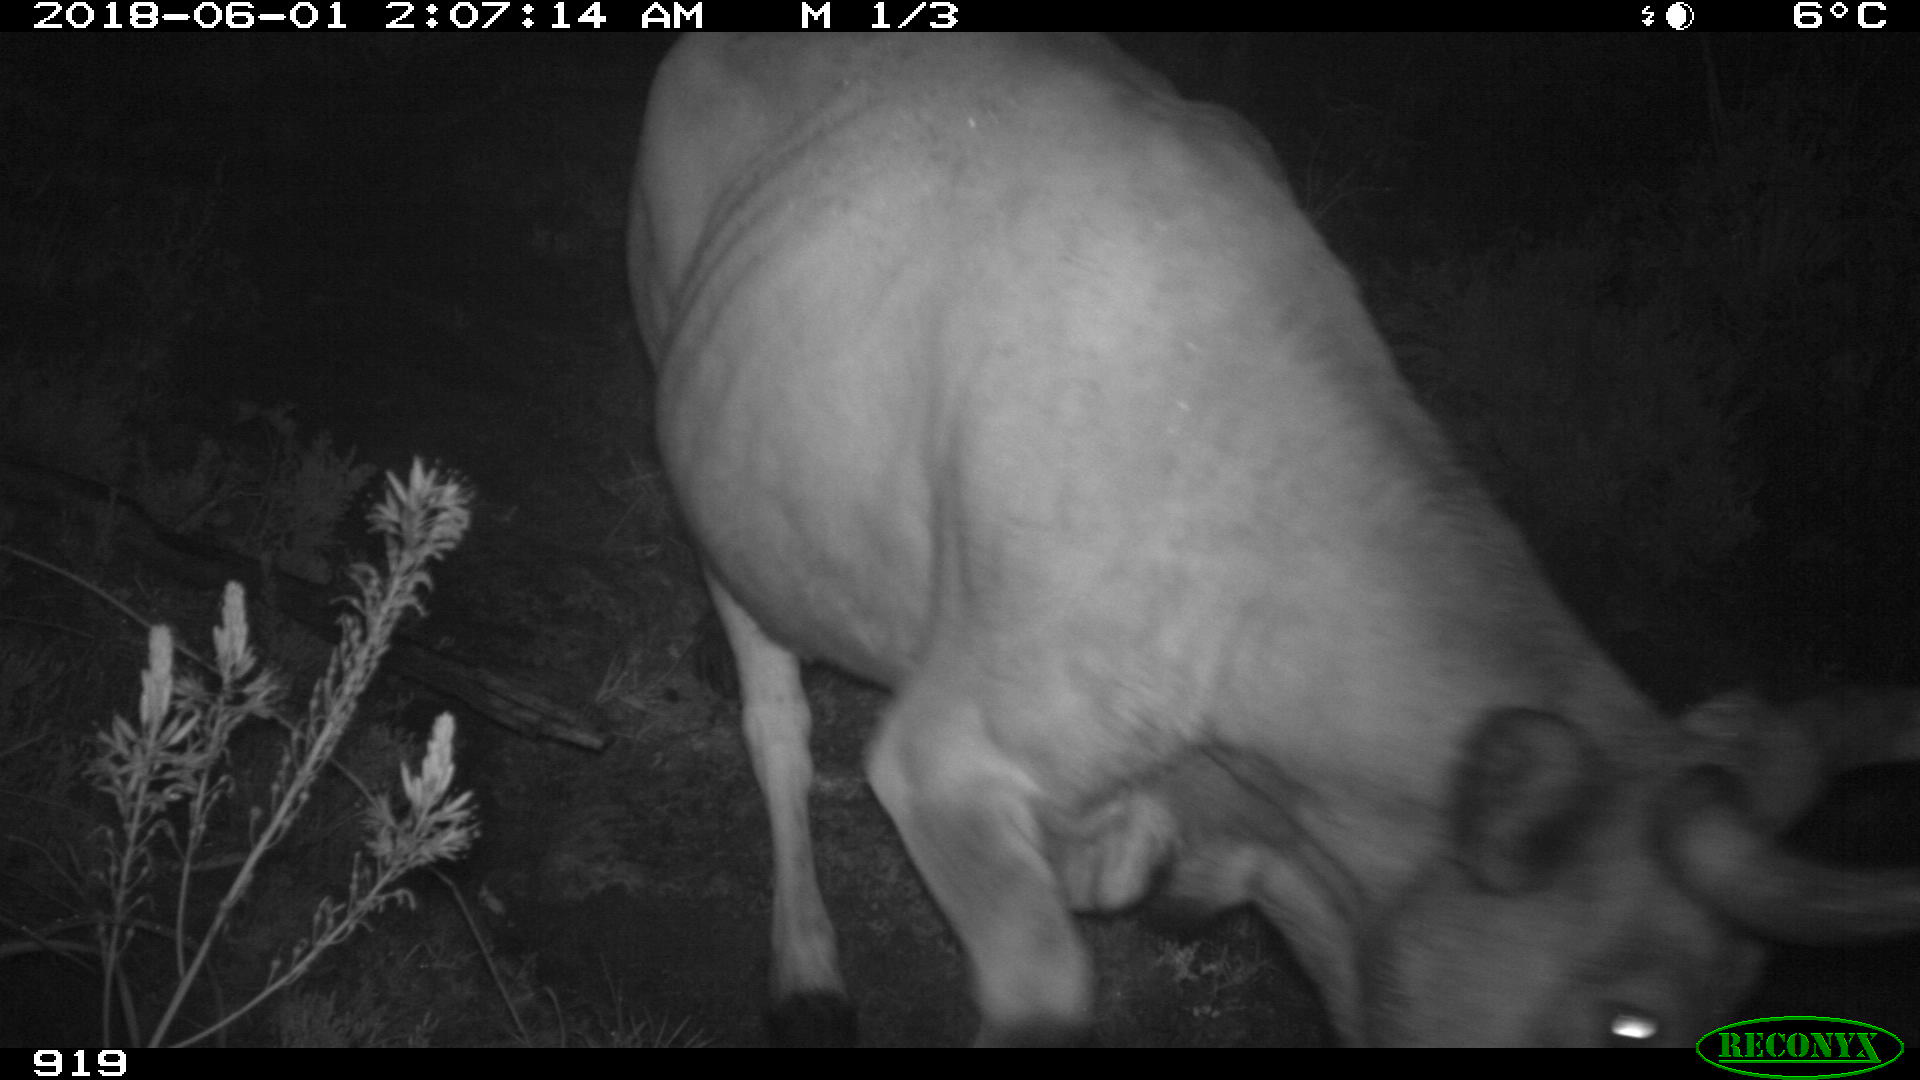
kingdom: Animalia
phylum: Chordata
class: Mammalia
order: Artiodactyla
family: Bovidae
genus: Bos
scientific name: Bos taurus
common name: Domesticated cattle
